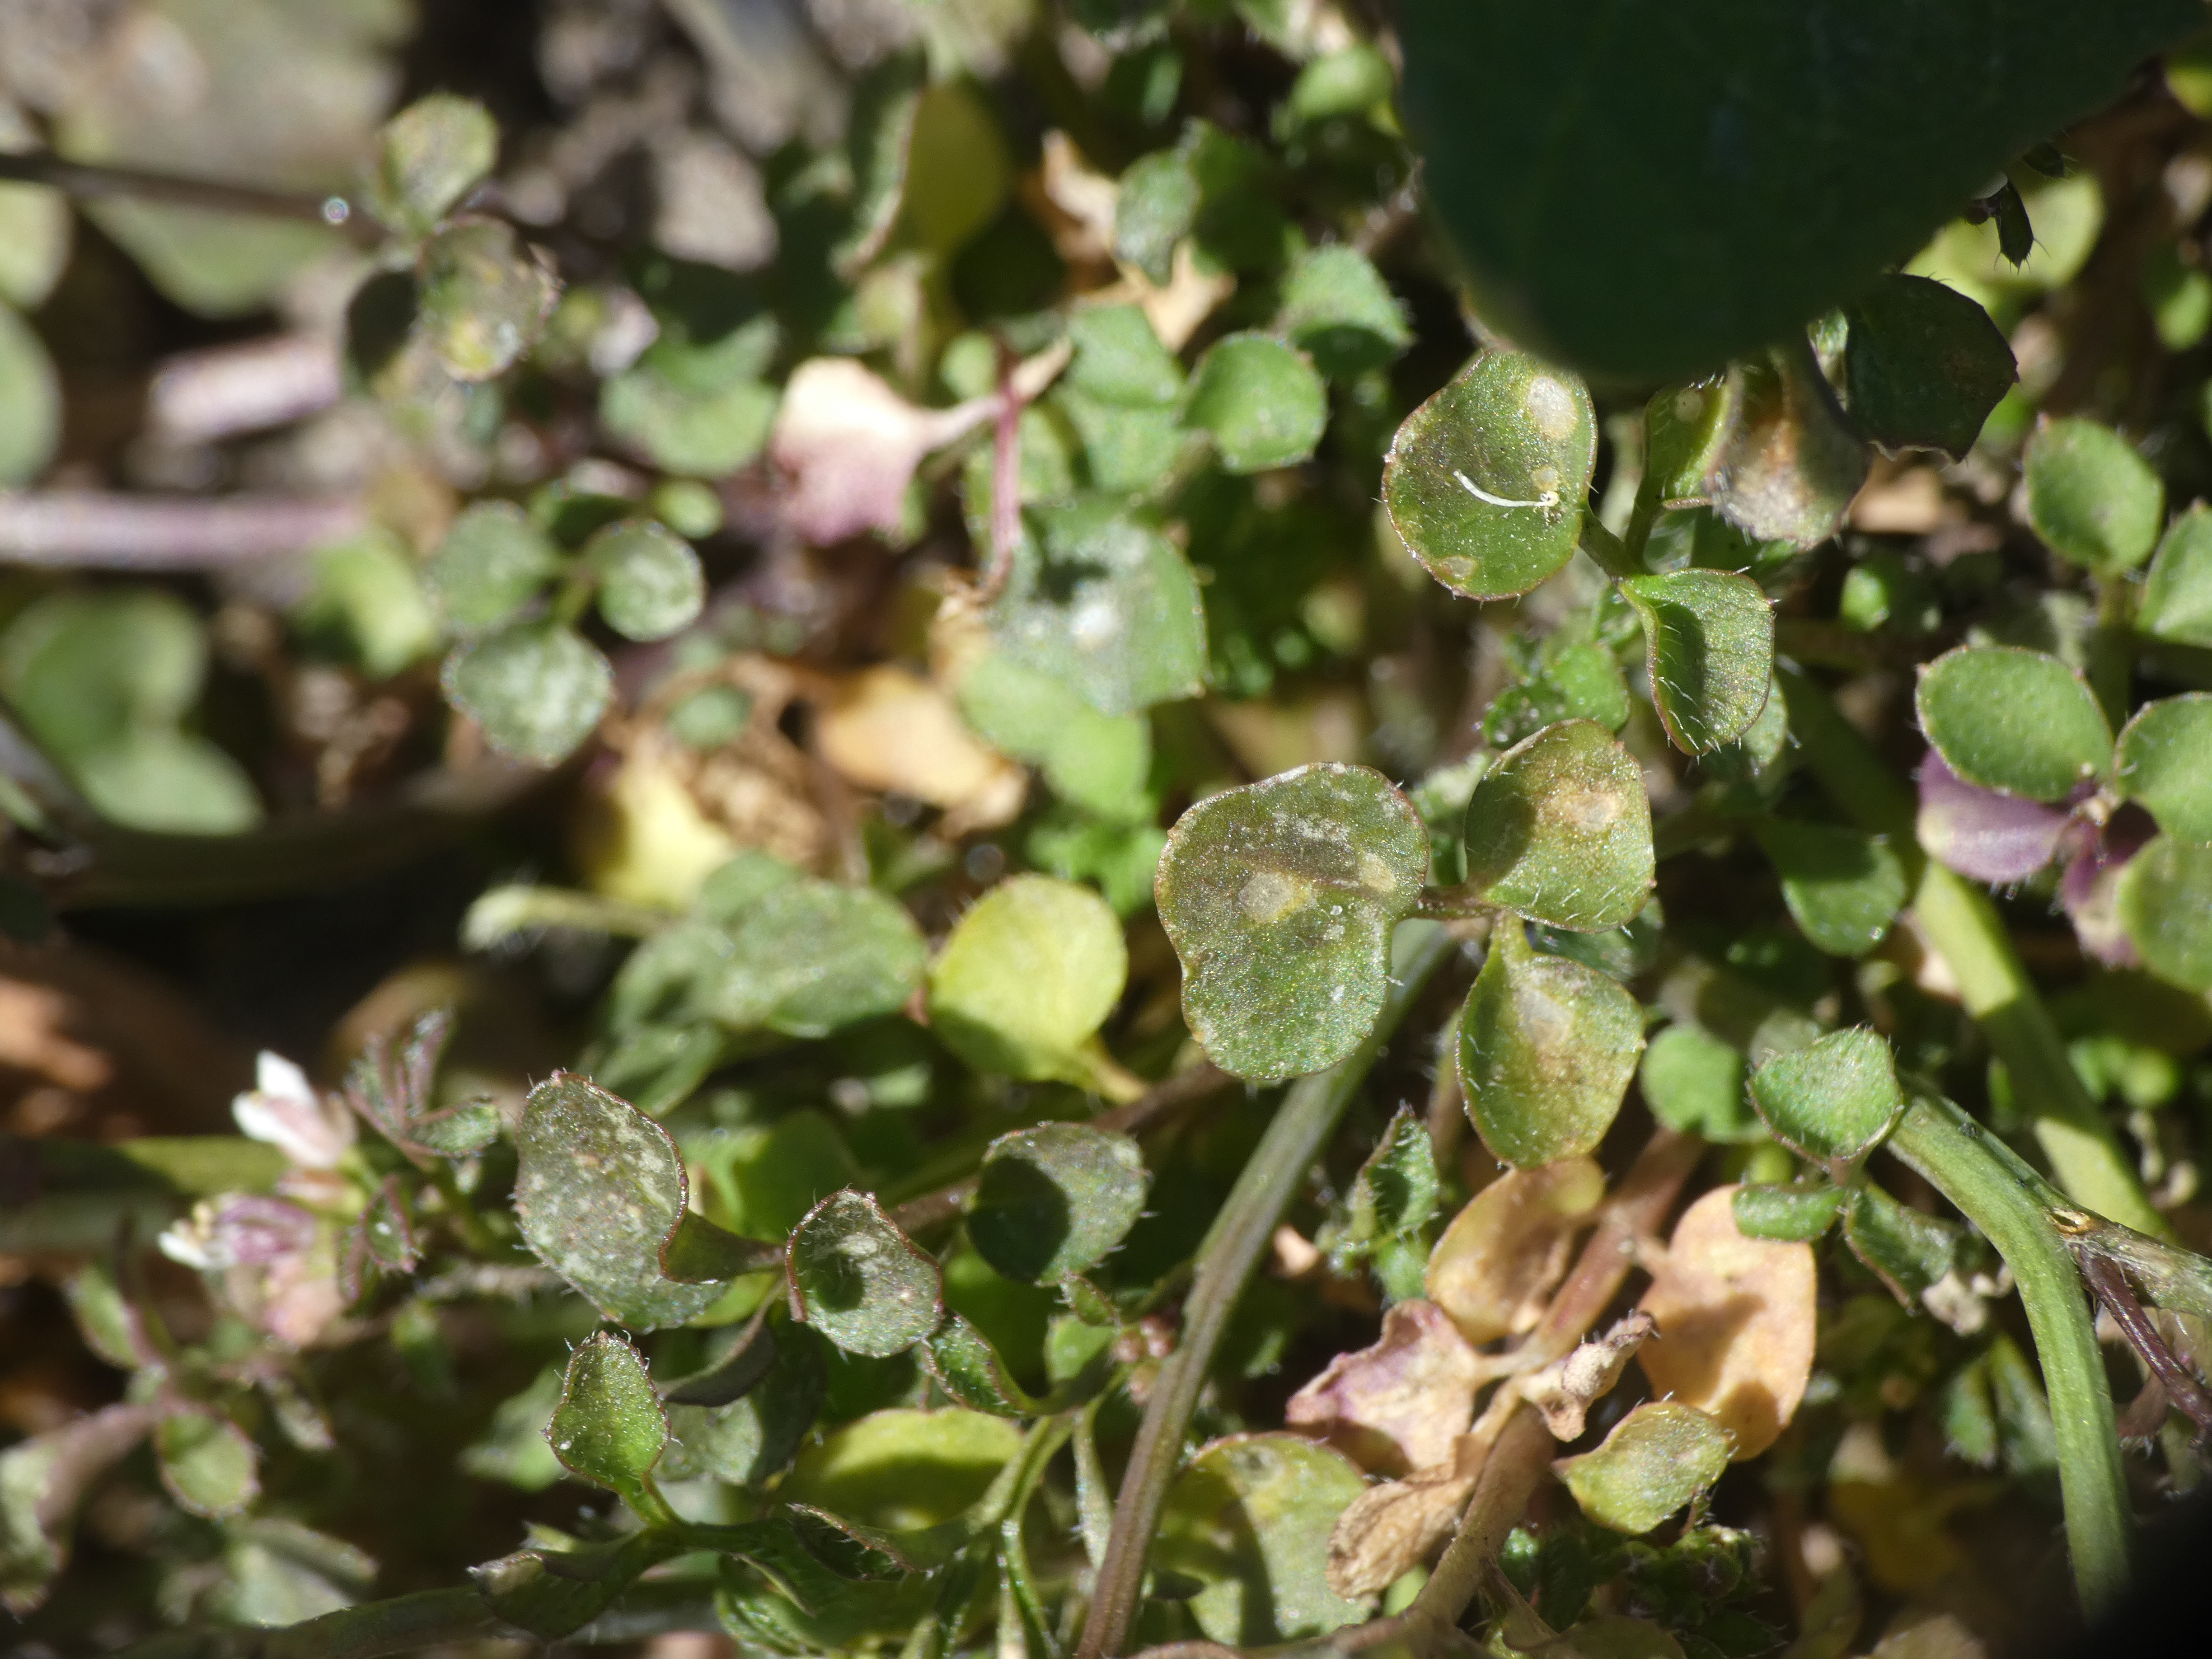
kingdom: Plantae
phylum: Tracheophyta
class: Magnoliopsida
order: Brassicales
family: Brassicaceae
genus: Cardamine
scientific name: Cardamine hirsuta
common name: Roset-springklap
